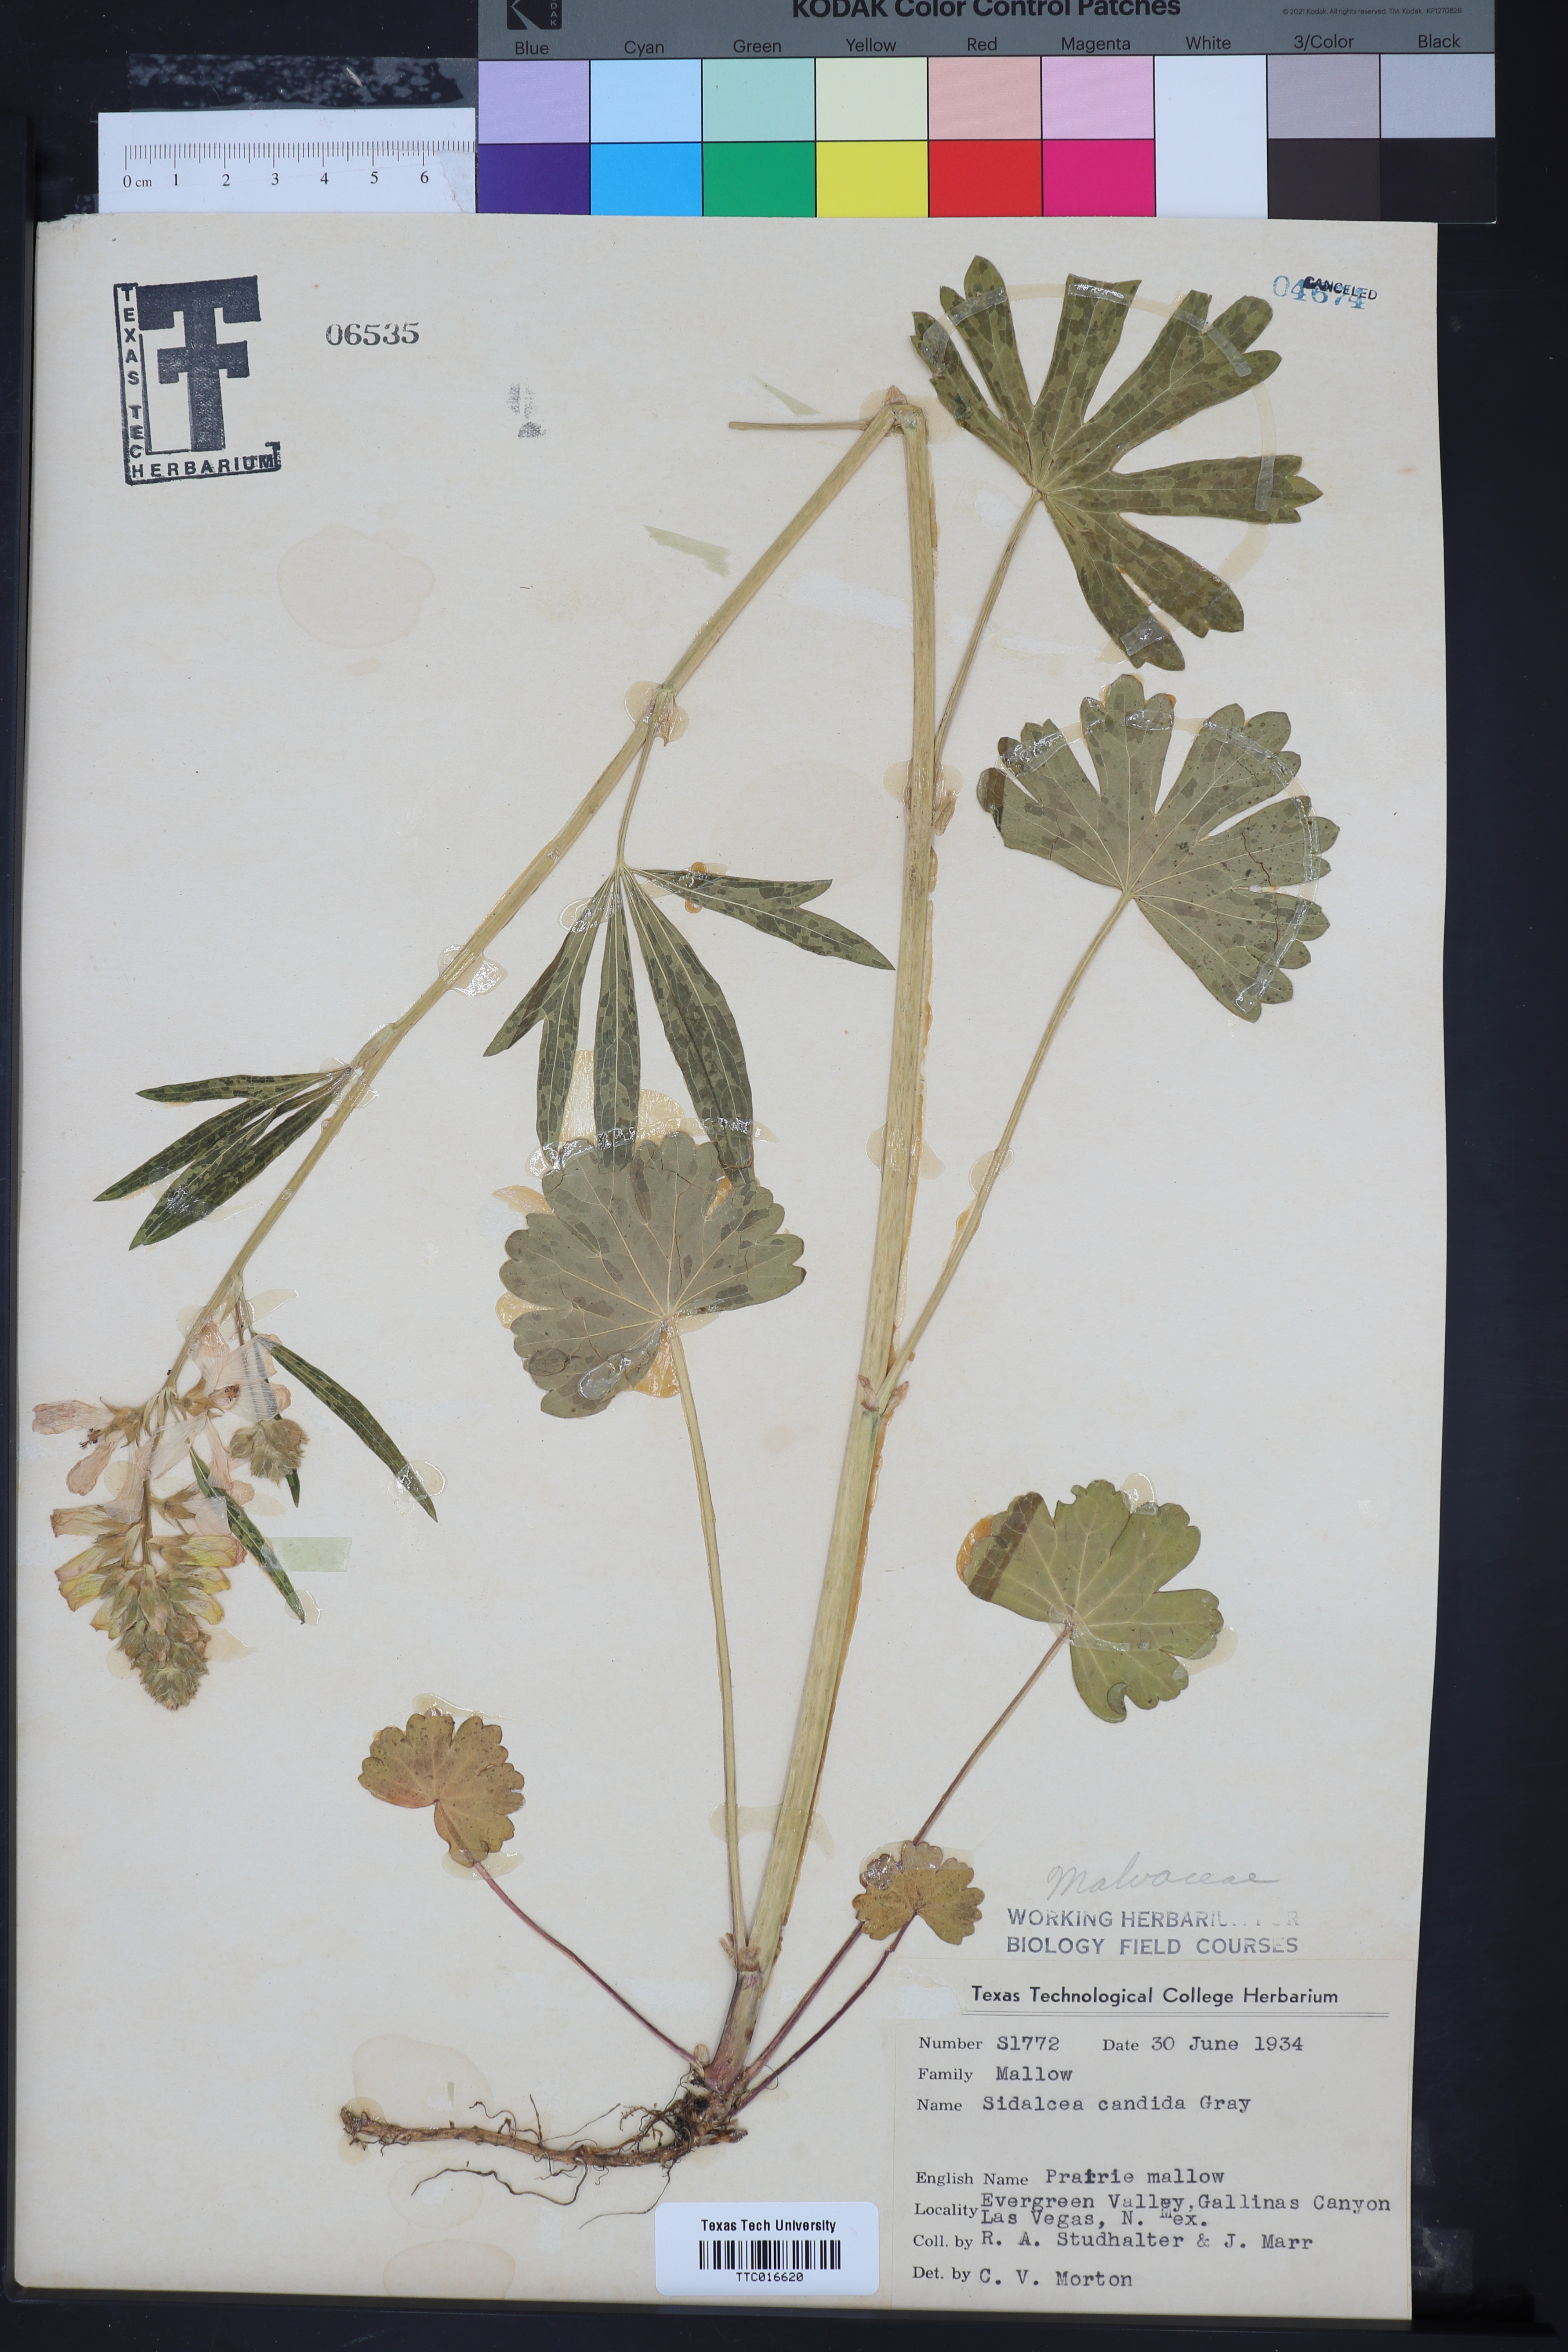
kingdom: Plantae
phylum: Tracheophyta
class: Magnoliopsida
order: Malvales
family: Malvaceae
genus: Sidalcea
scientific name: Sidalcea candida
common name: Prairie-mallow
